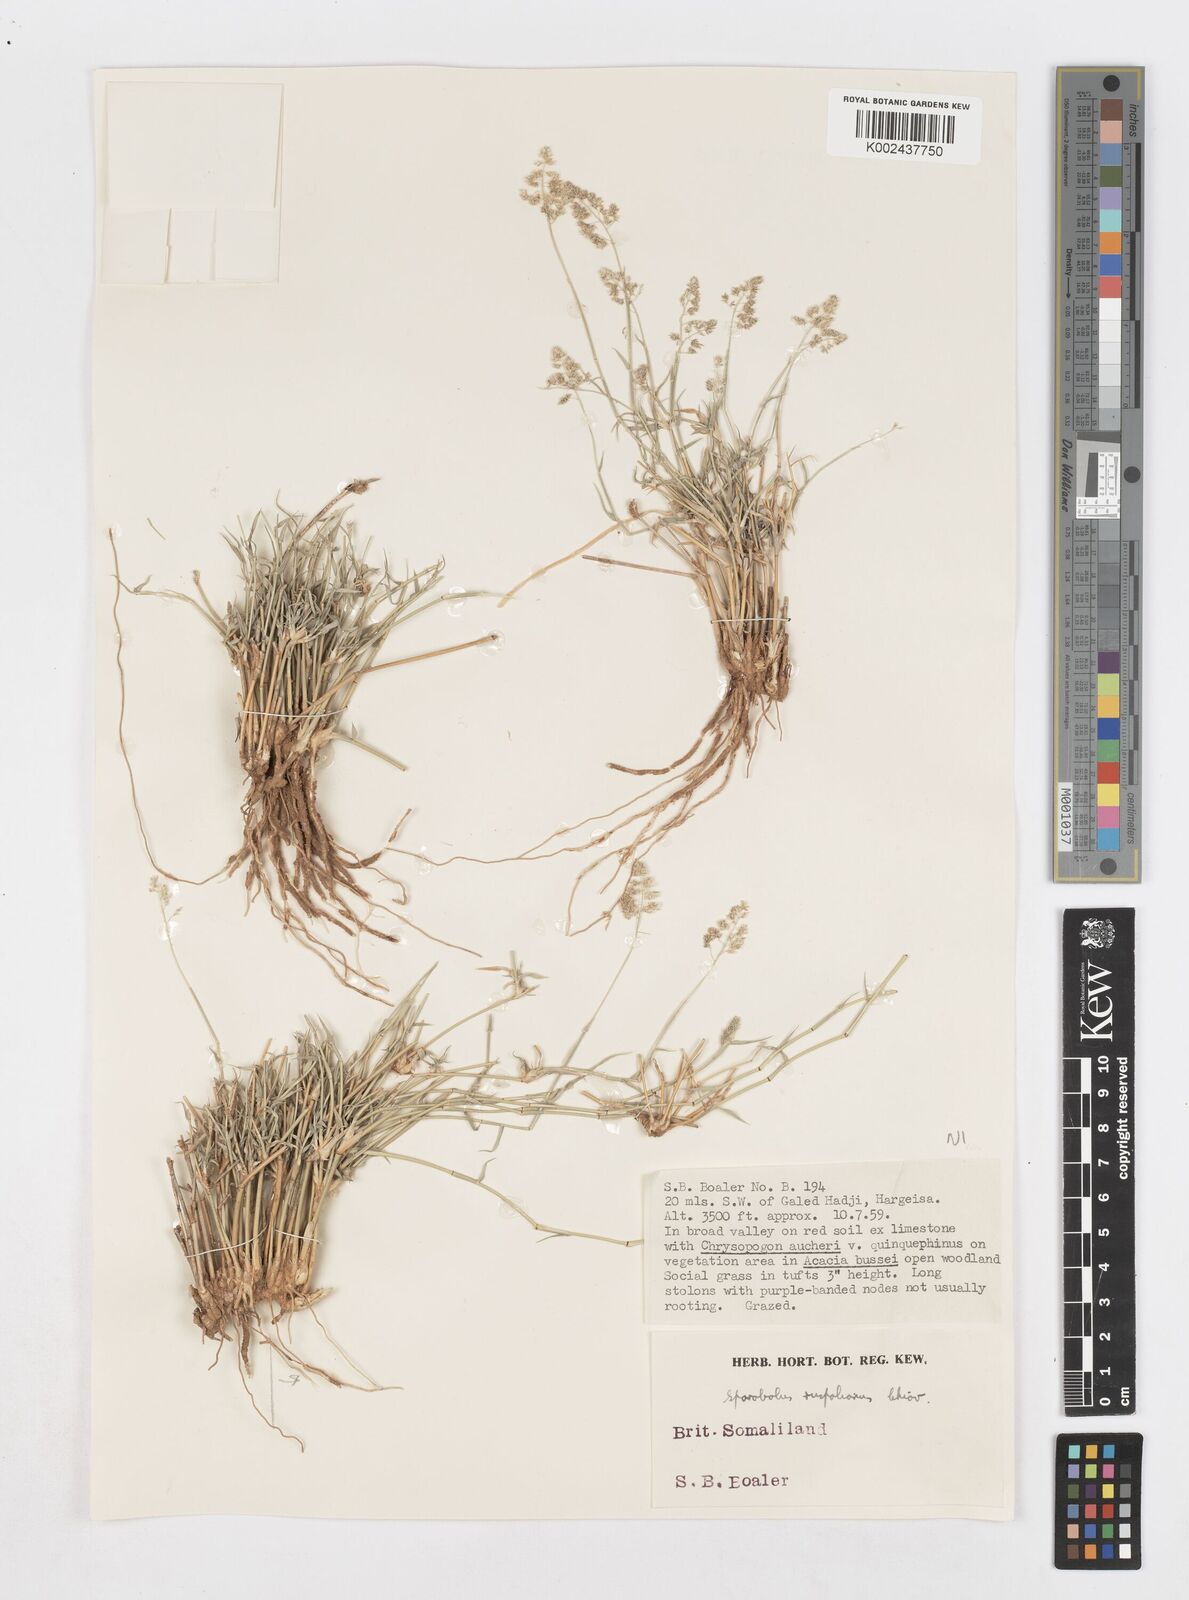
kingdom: Plantae
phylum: Tracheophyta
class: Liliopsida
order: Poales
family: Poaceae
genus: Sporobolus
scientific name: Sporobolus ruspolianus
